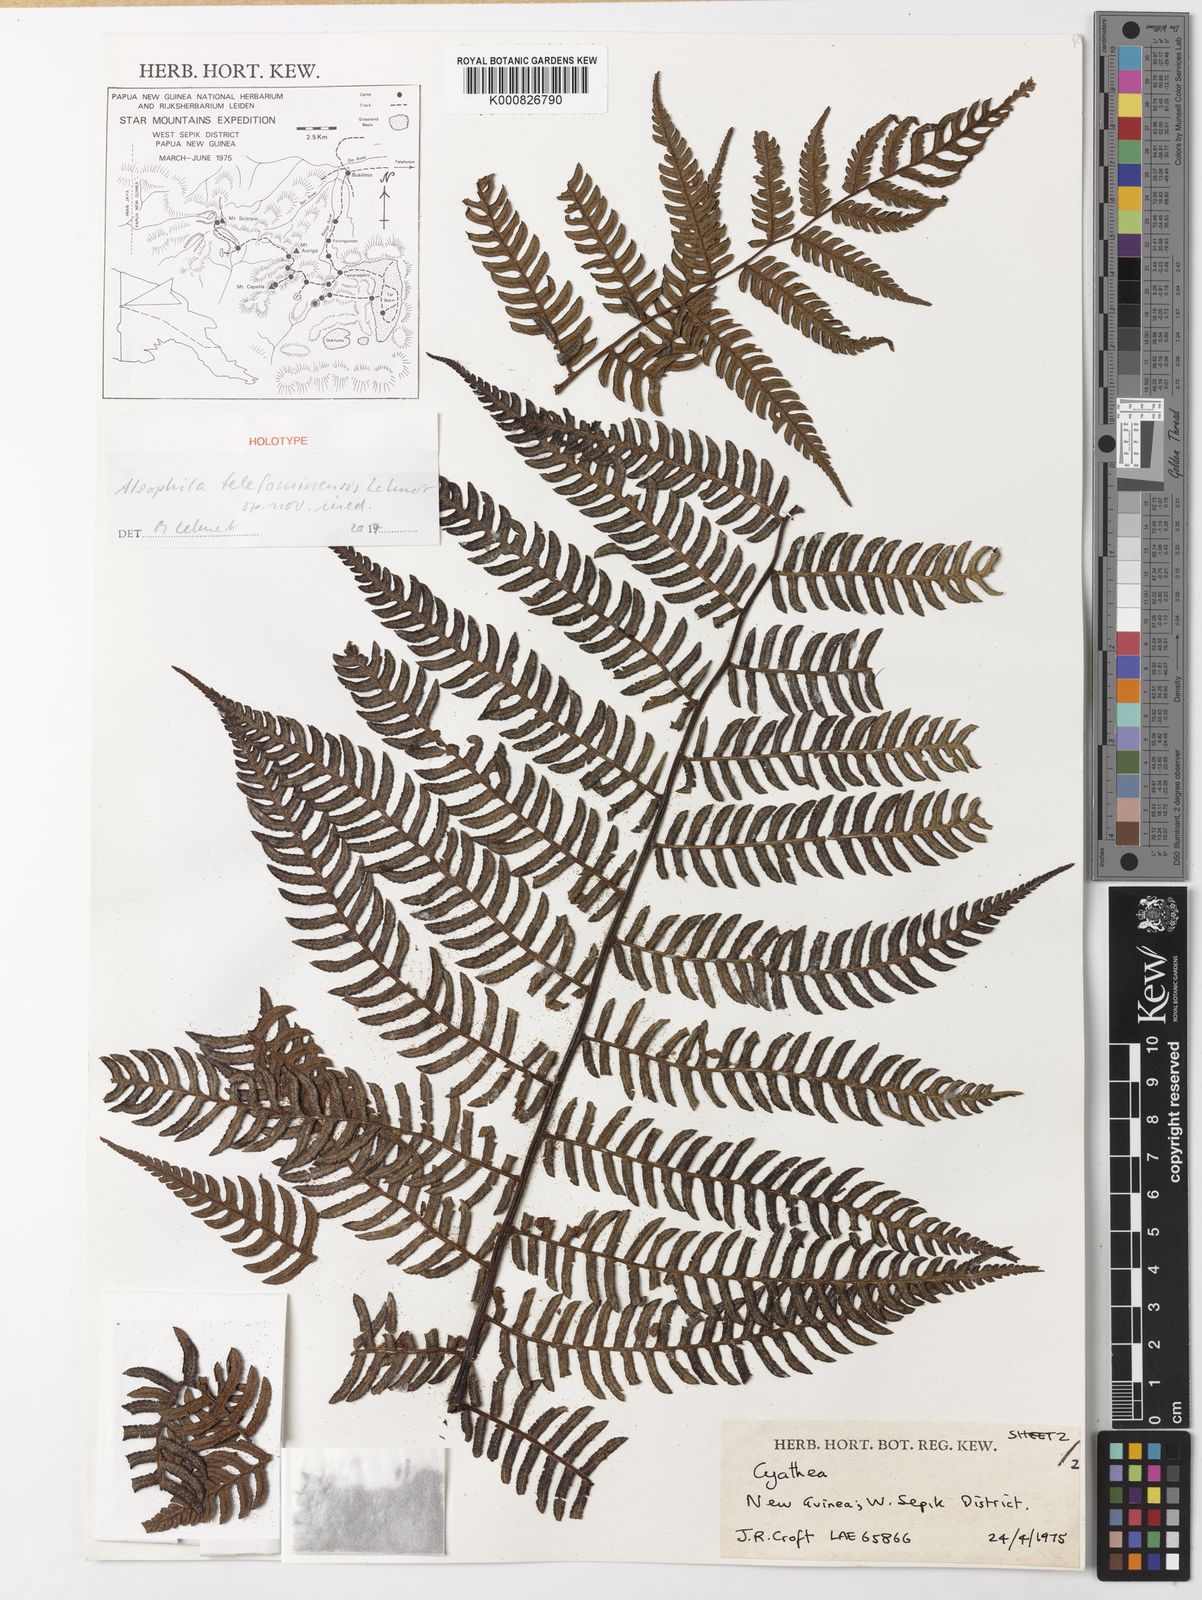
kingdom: Plantae
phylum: Tracheophyta
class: Polypodiopsida
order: Cyatheales
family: Cyatheaceae
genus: Alsophila
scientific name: Alsophila telefominensis
